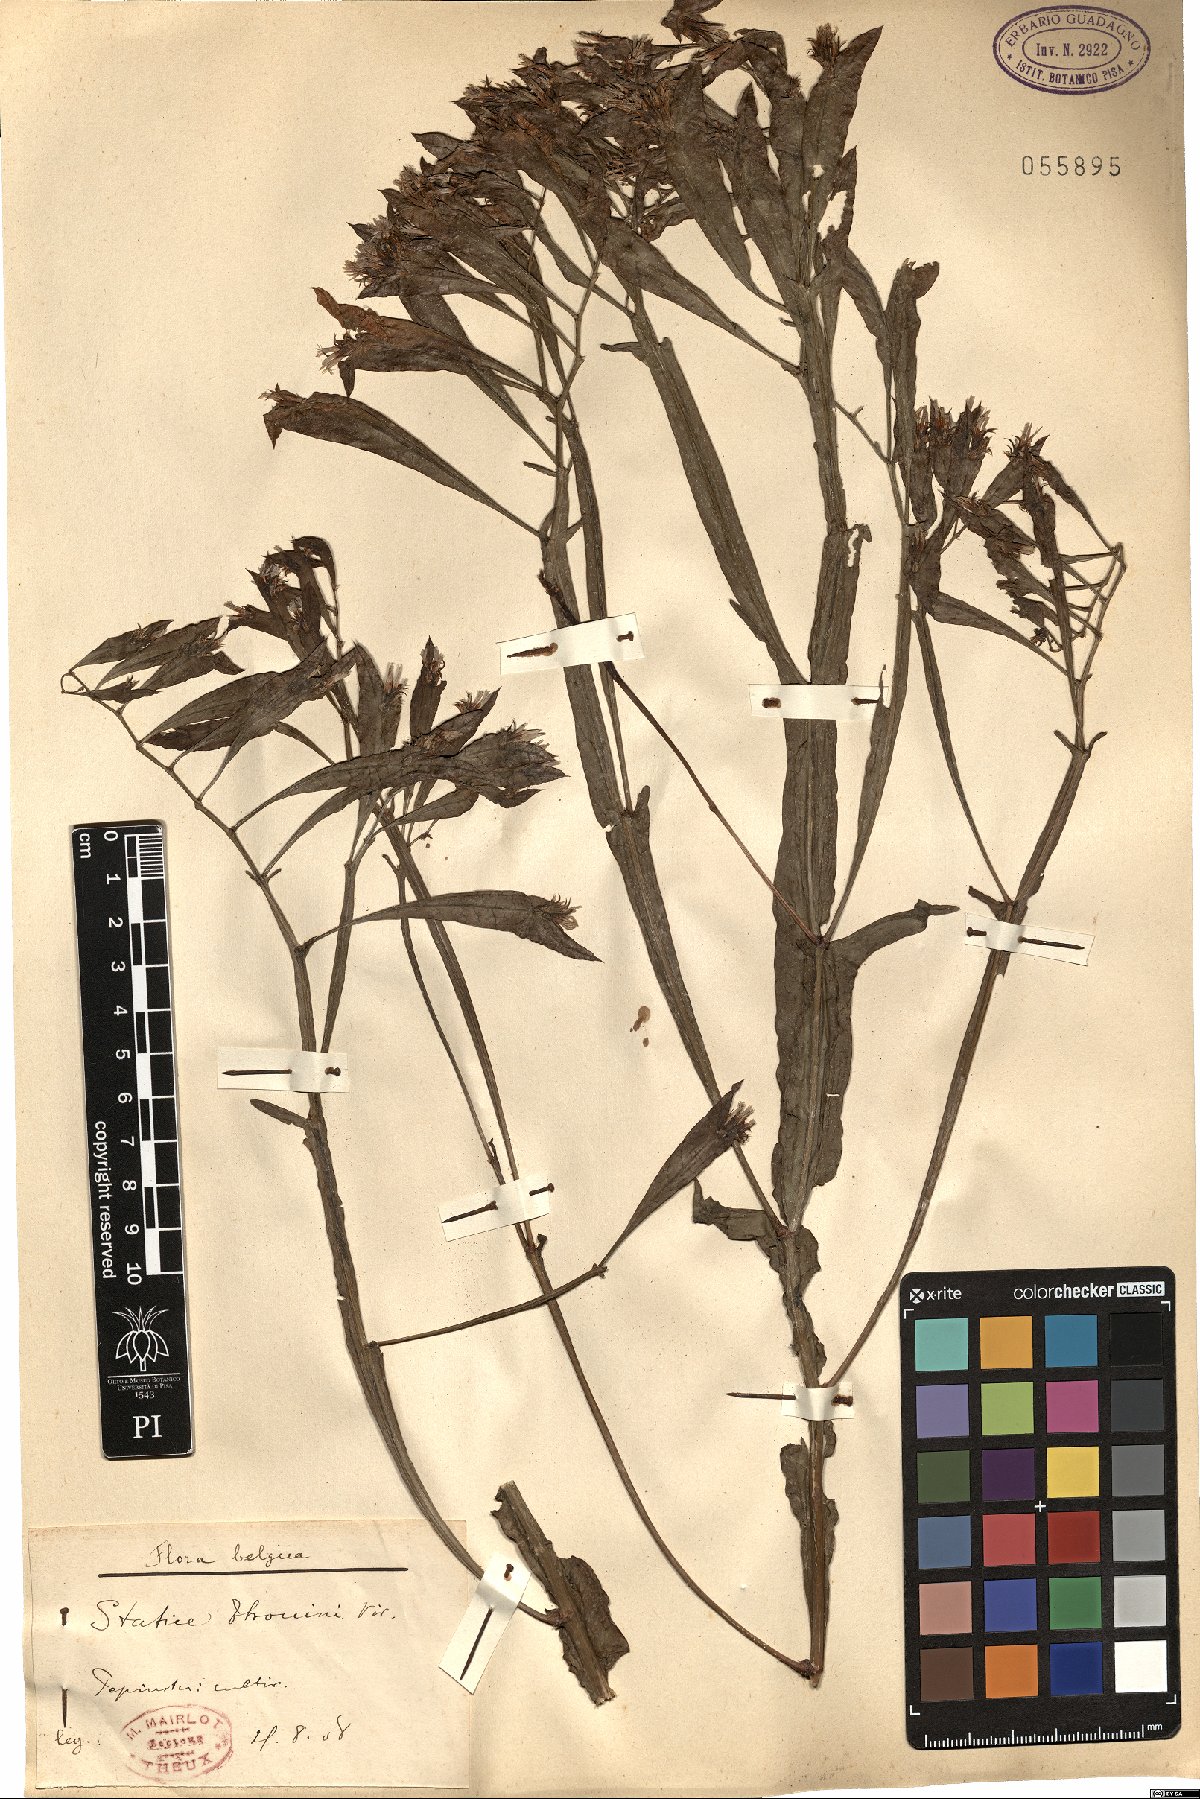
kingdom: Plantae
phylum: Tracheophyta
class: Magnoliopsida
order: Caryophyllales
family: Plumbaginaceae
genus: Limonium
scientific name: Limonium lobatum
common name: Winged sea-lavender
